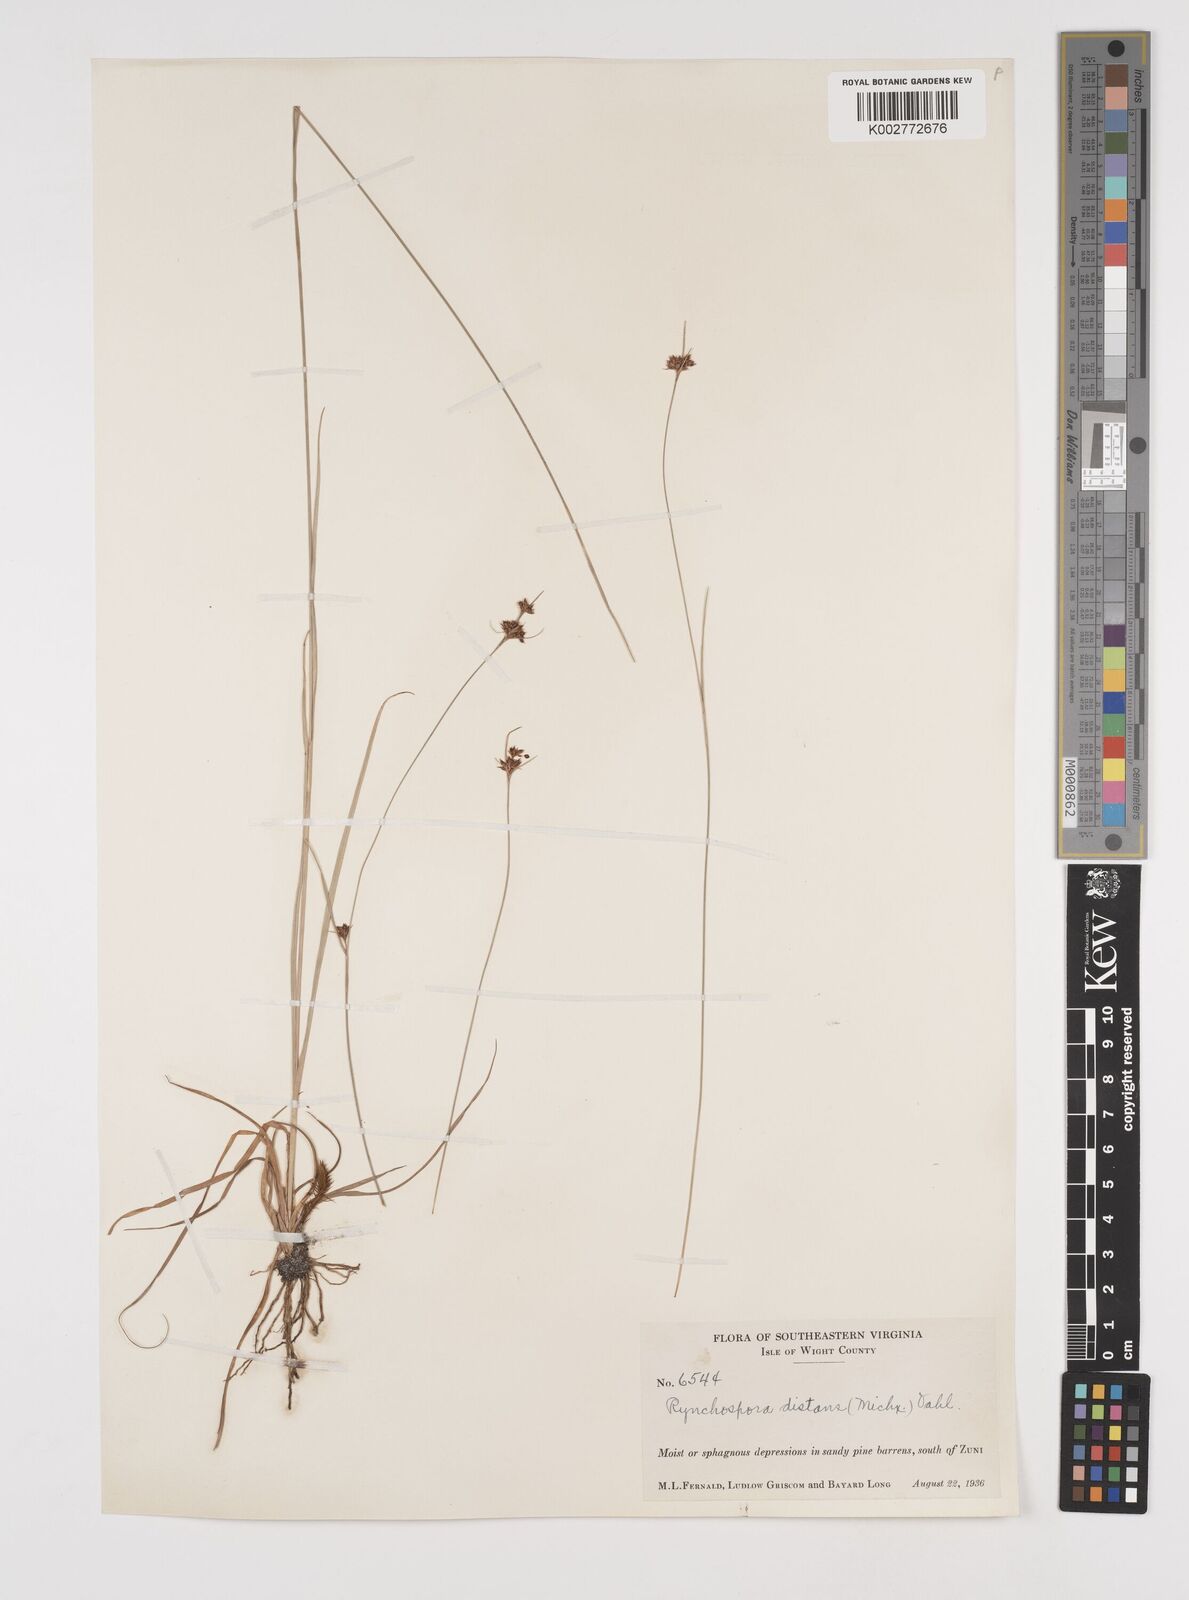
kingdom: Plantae
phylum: Tracheophyta
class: Liliopsida
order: Poales
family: Cyperaceae
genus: Rhynchospora
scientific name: Rhynchospora fascicularis
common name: Fascicled beak sedge
